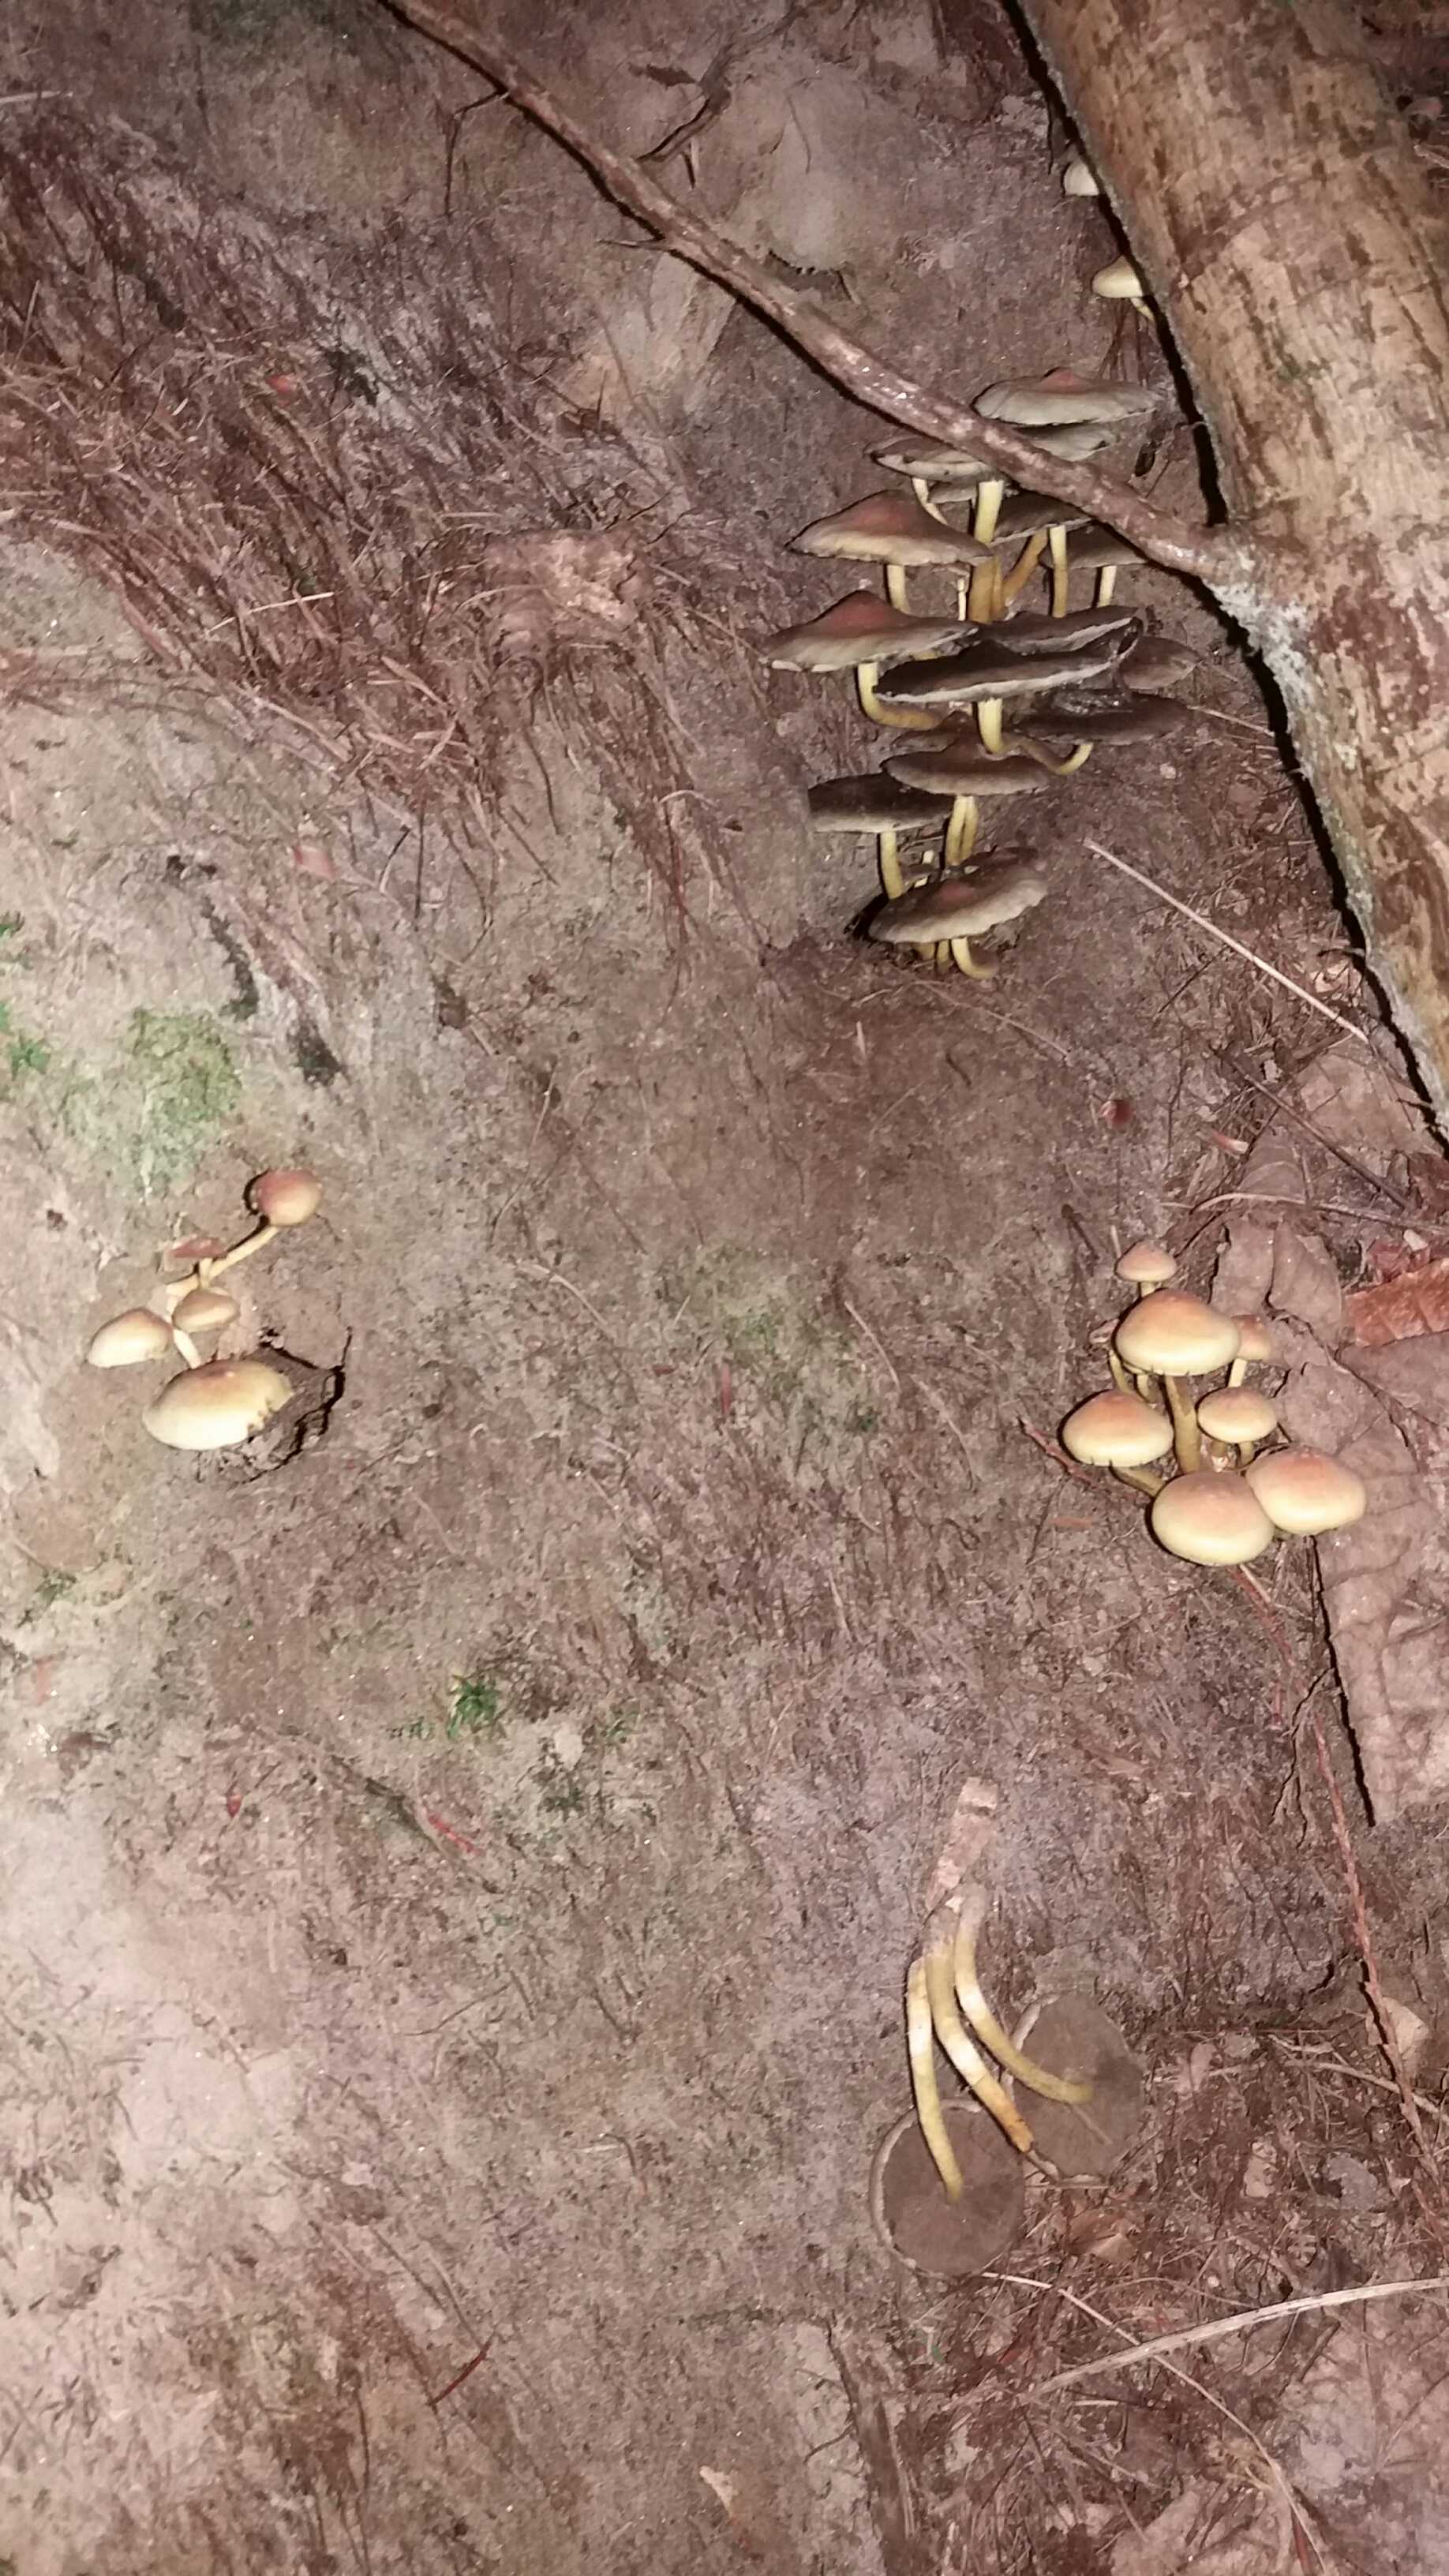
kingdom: Fungi
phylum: Basidiomycota
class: Agaricomycetes
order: Agaricales
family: Strophariaceae
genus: Hypholoma
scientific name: Hypholoma fasciculare
